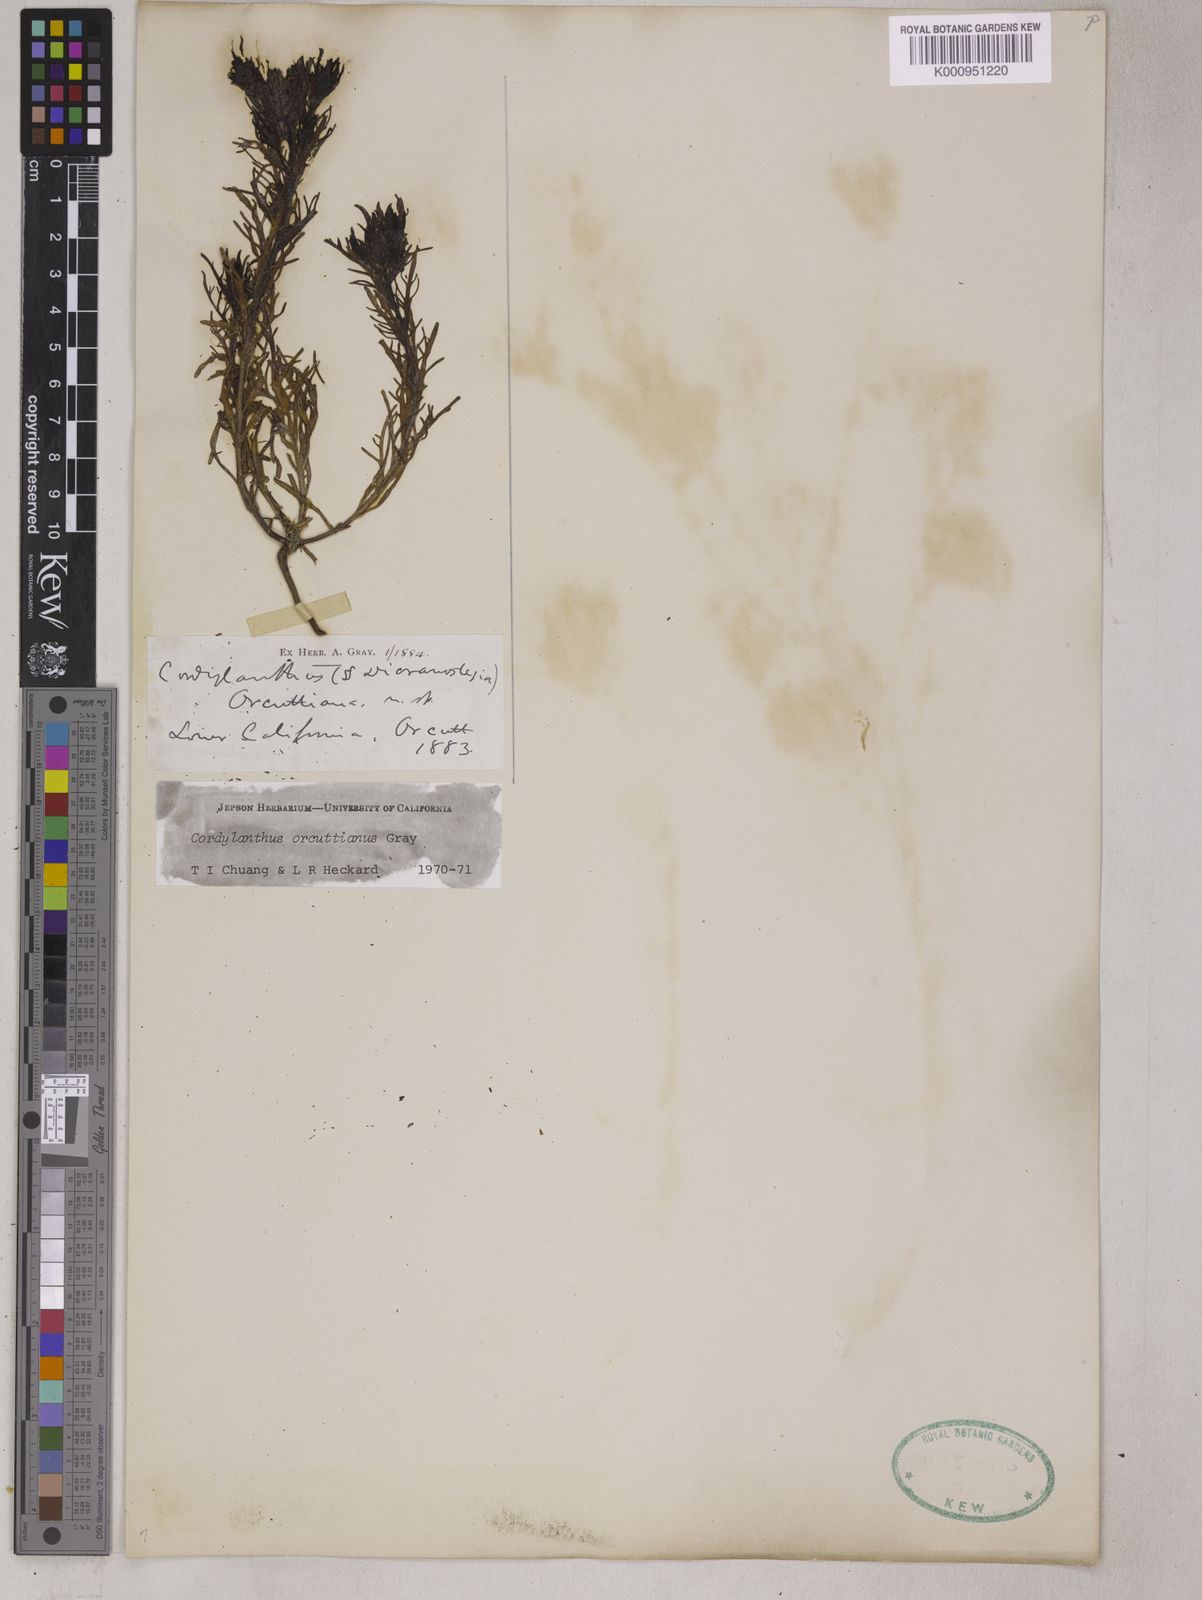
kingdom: Plantae
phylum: Tracheophyta
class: Magnoliopsida
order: Lamiales
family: Orobanchaceae
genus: Dicranostegia
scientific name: Dicranostegia orcuttiana
